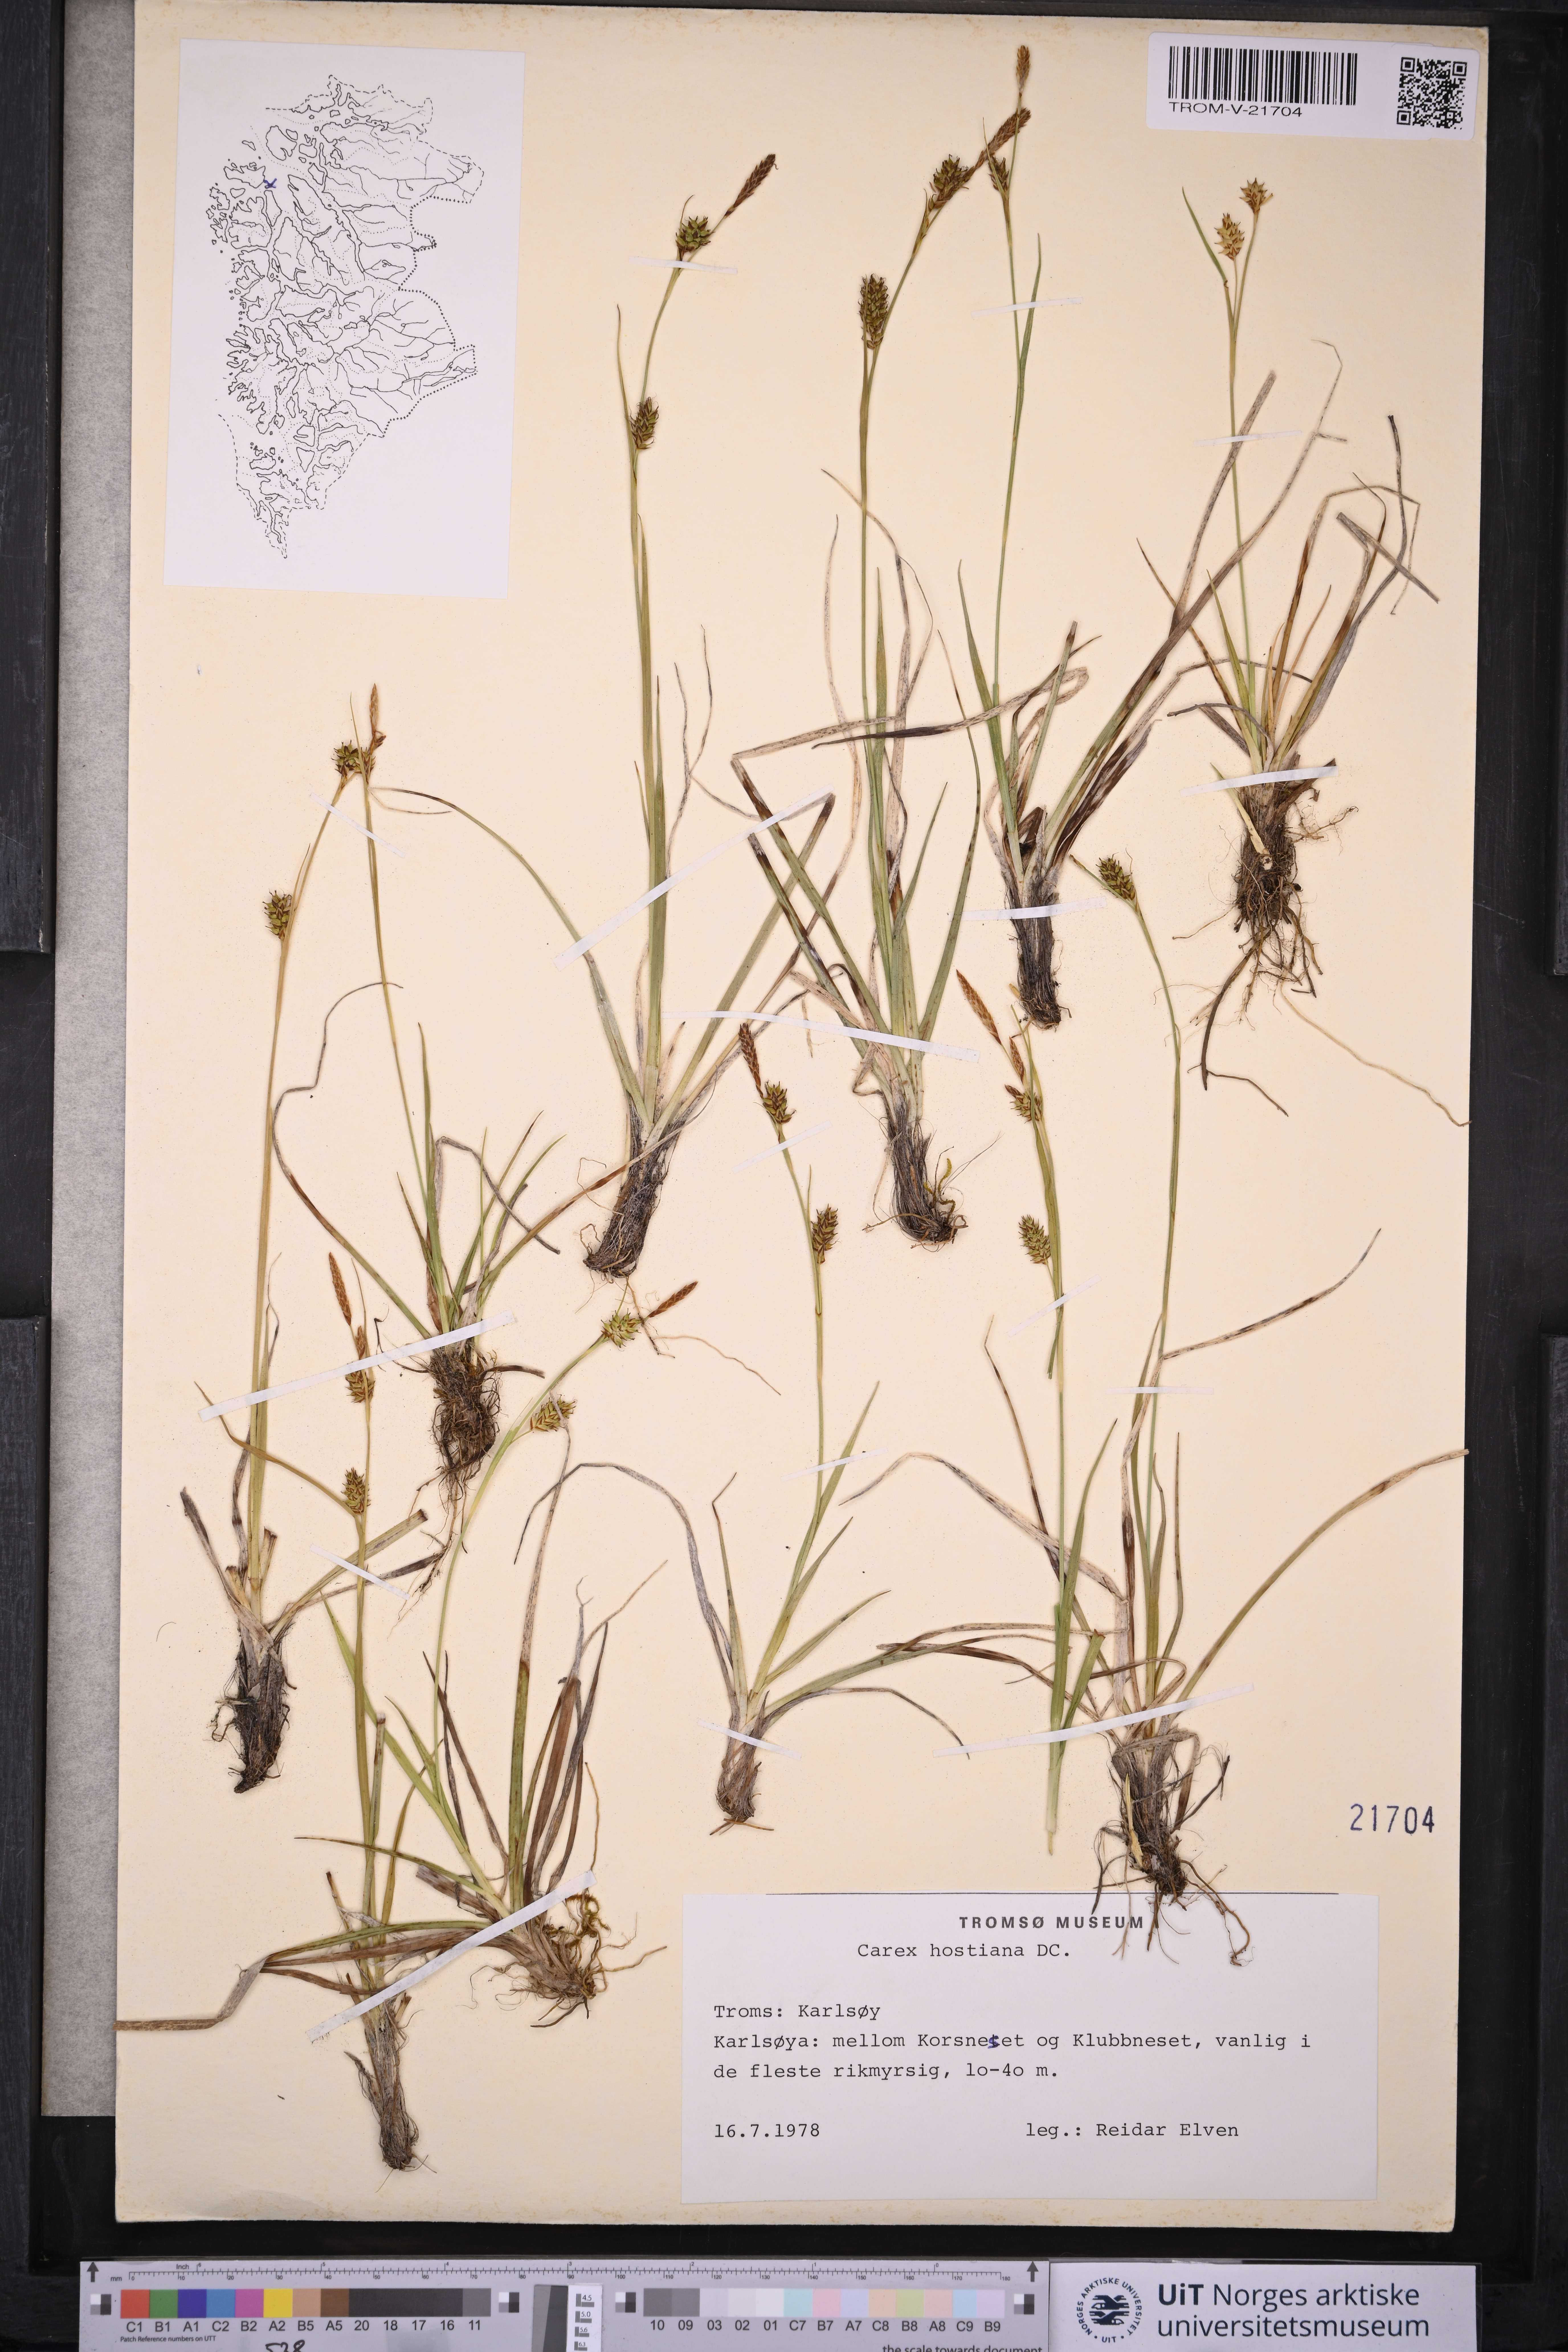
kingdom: Plantae
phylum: Tracheophyta
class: Liliopsida
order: Poales
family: Cyperaceae
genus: Carex
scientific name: Carex hostiana
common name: Tawny sedge
